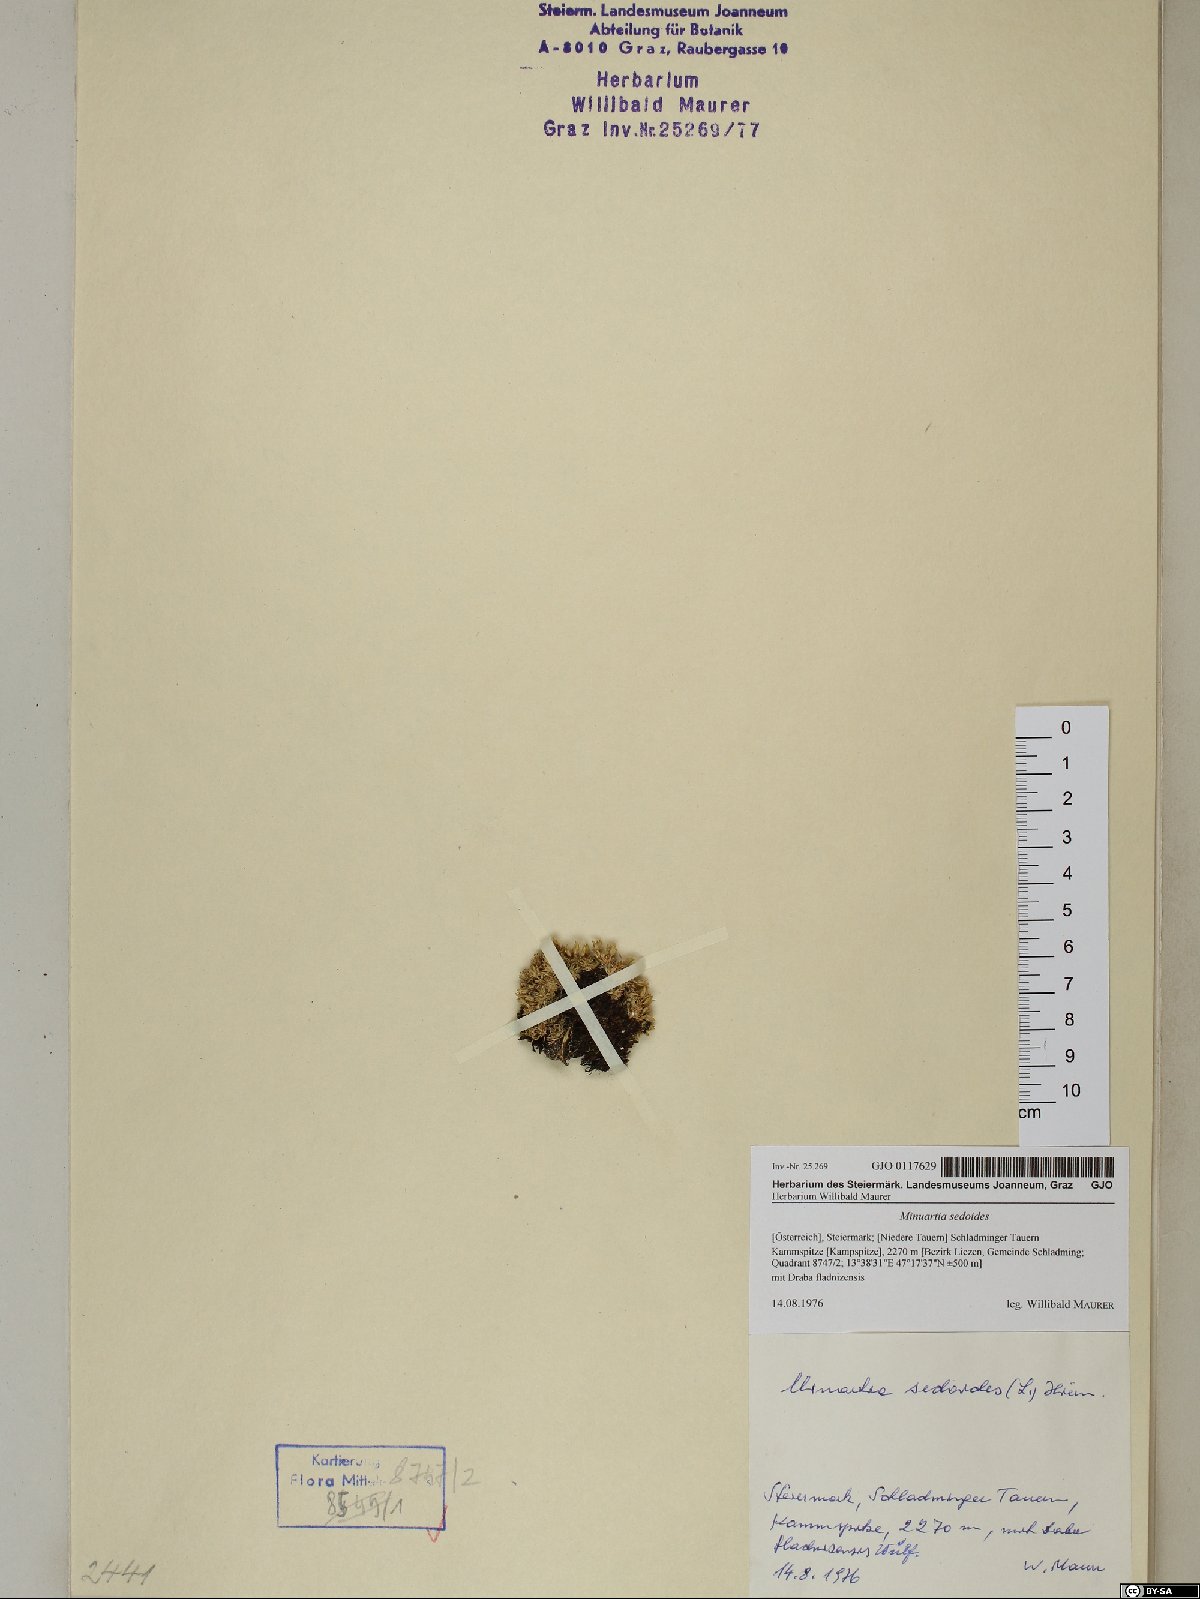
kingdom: Plantae
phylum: Tracheophyta
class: Magnoliopsida
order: Caryophyllales
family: Caryophyllaceae
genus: Cherleria
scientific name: Cherleria sedoides
